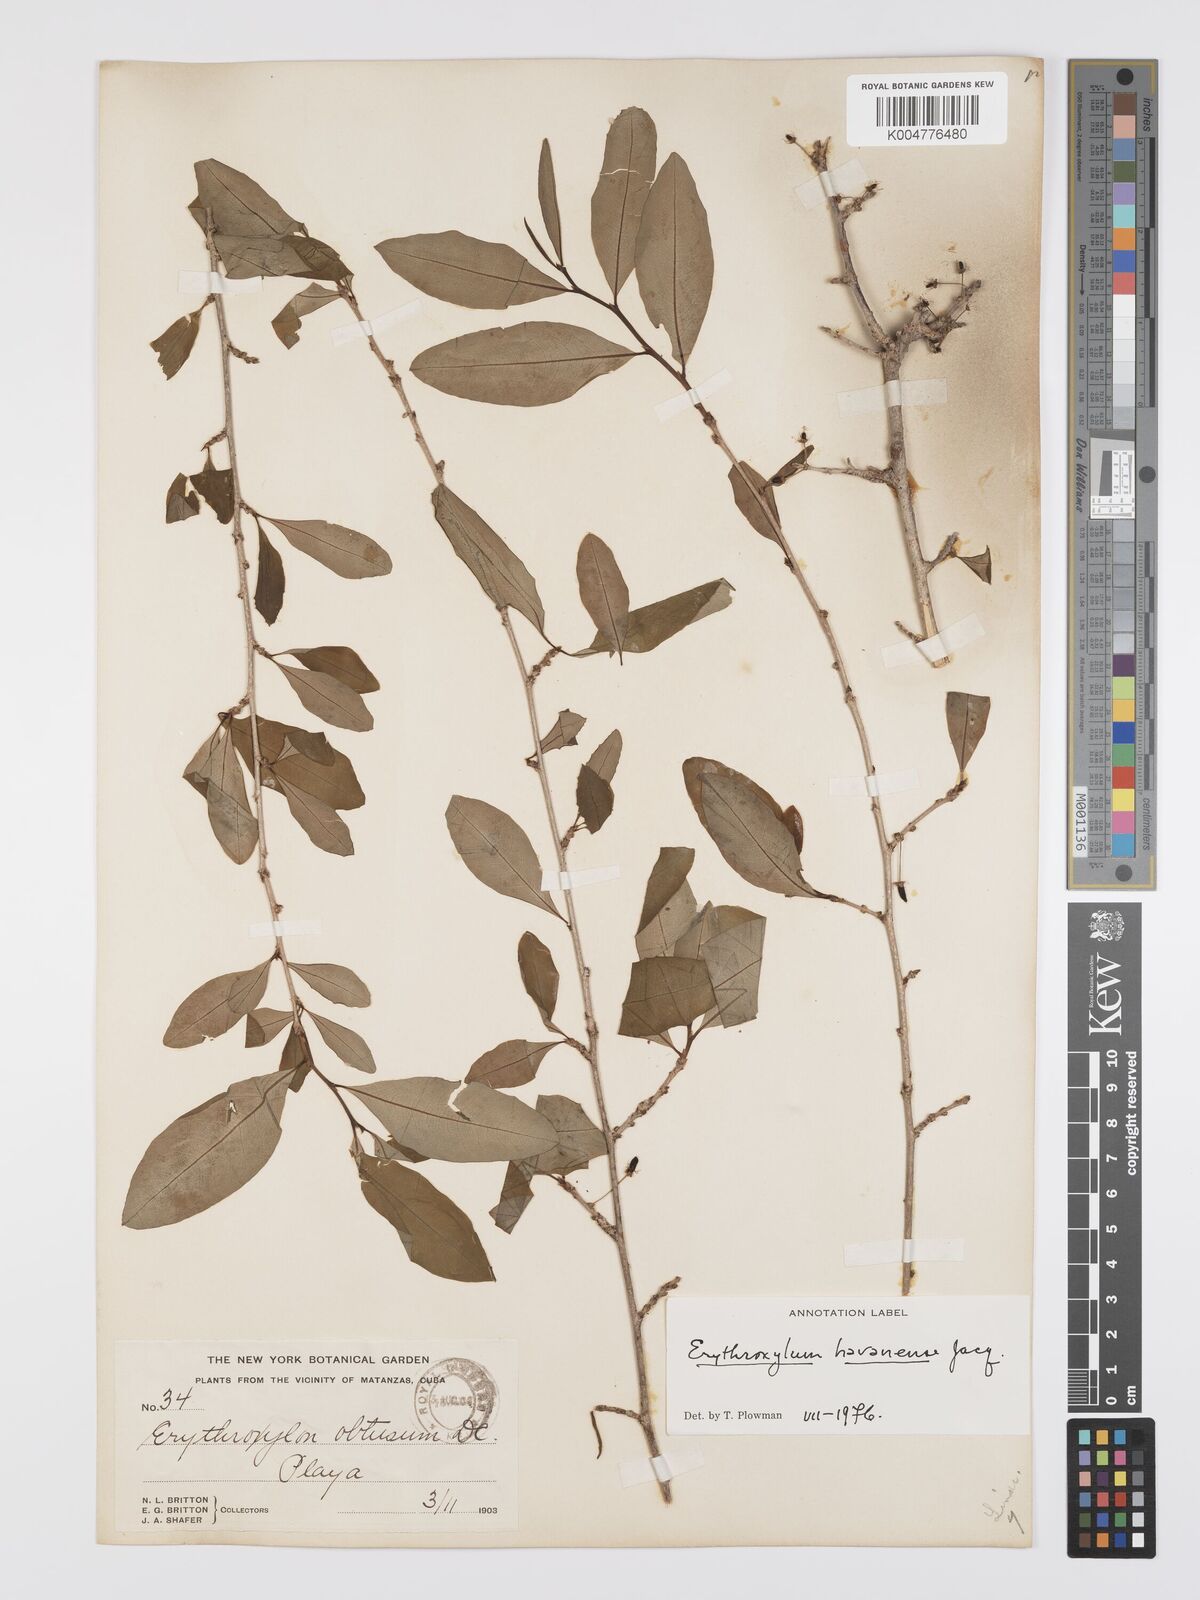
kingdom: Plantae
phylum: Tracheophyta
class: Magnoliopsida
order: Malpighiales
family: Erythroxylaceae
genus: Erythroxylum
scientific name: Erythroxylum
